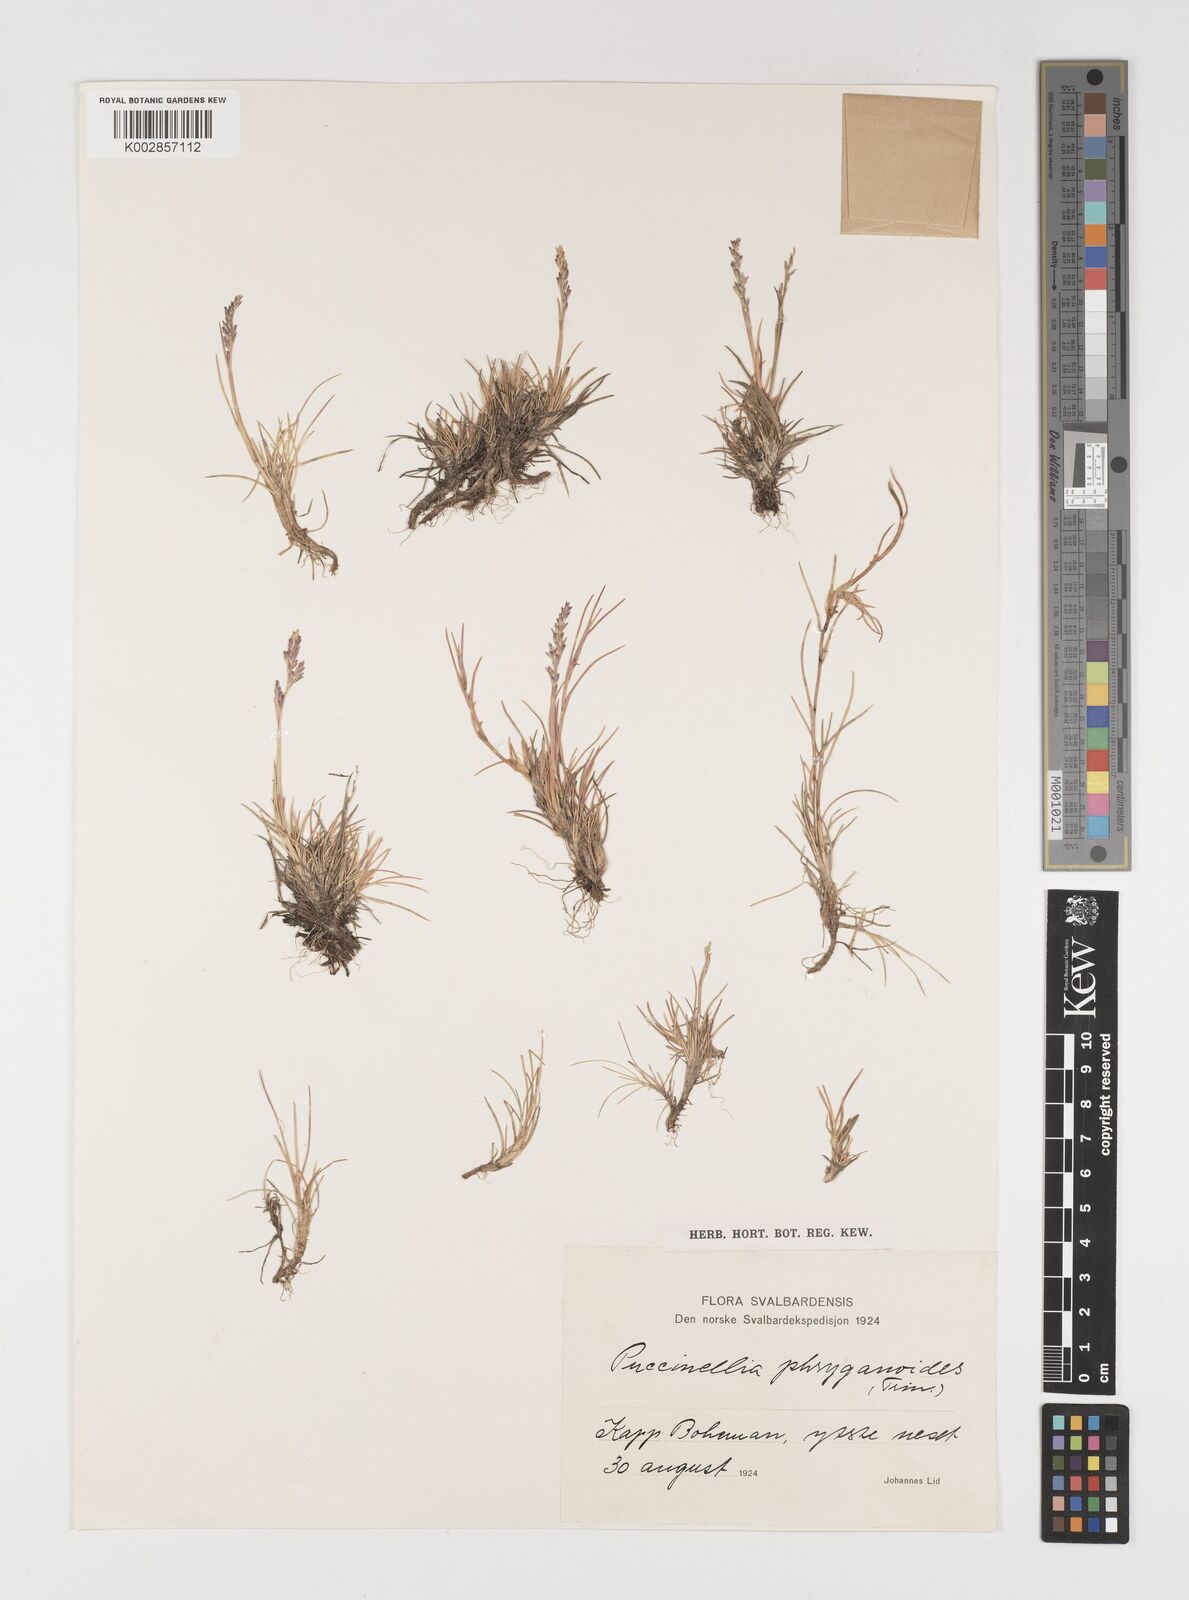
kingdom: Plantae
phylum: Tracheophyta
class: Liliopsida
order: Poales
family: Poaceae
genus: Puccinellia
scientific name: Puccinellia phryganodes
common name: Creeping alkaligrass
